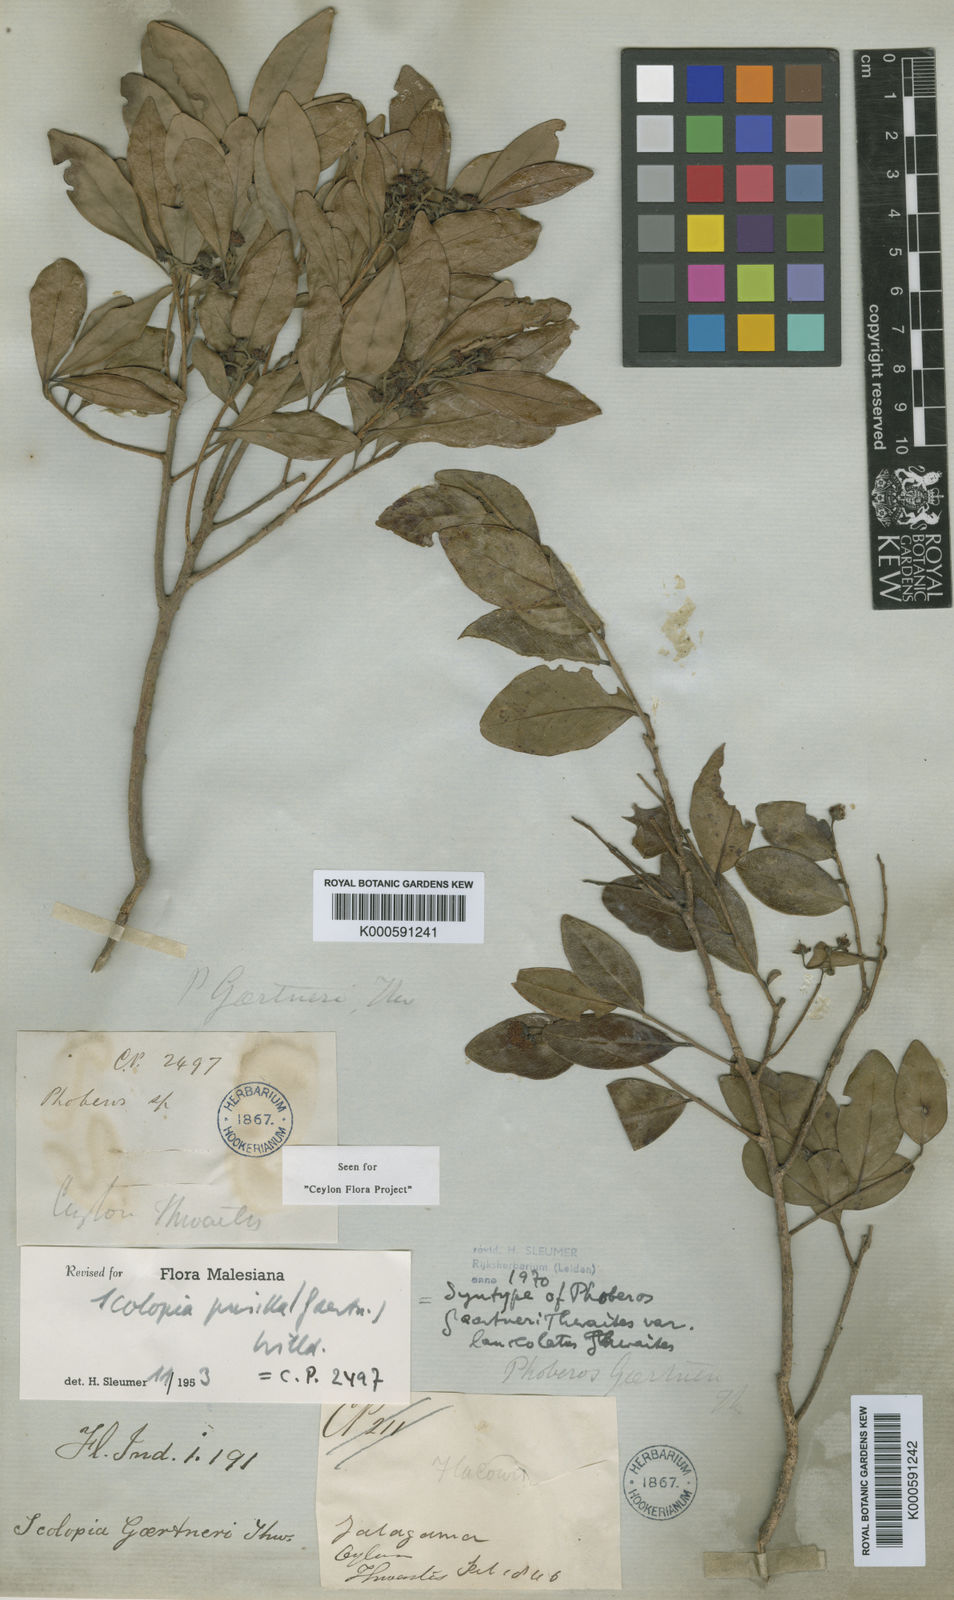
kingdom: Plantae
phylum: Tracheophyta
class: Magnoliopsida
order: Malpighiales
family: Salicaceae
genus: Scolopia
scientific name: Scolopia pusilla
